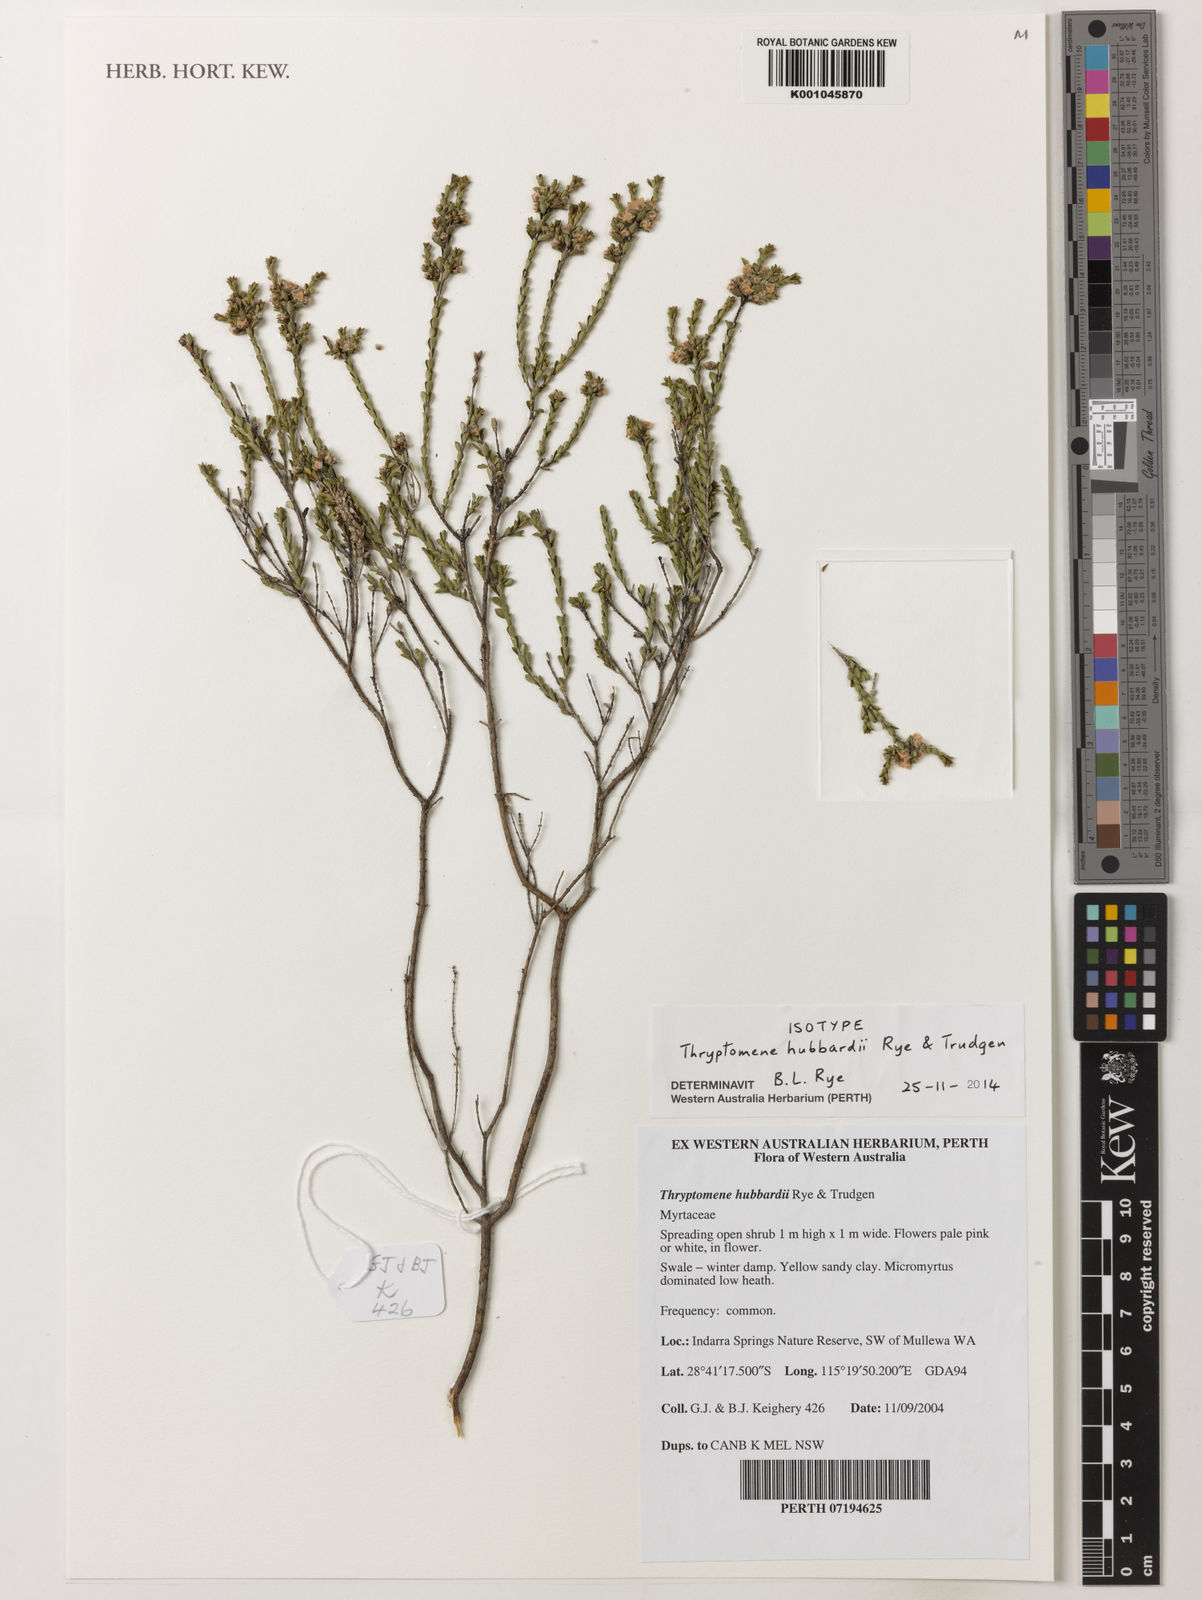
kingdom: Plantae
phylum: Tracheophyta
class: Magnoliopsida
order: Myrtales
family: Myrtaceae
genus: Thryptomene
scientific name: Thryptomene hubbardii
